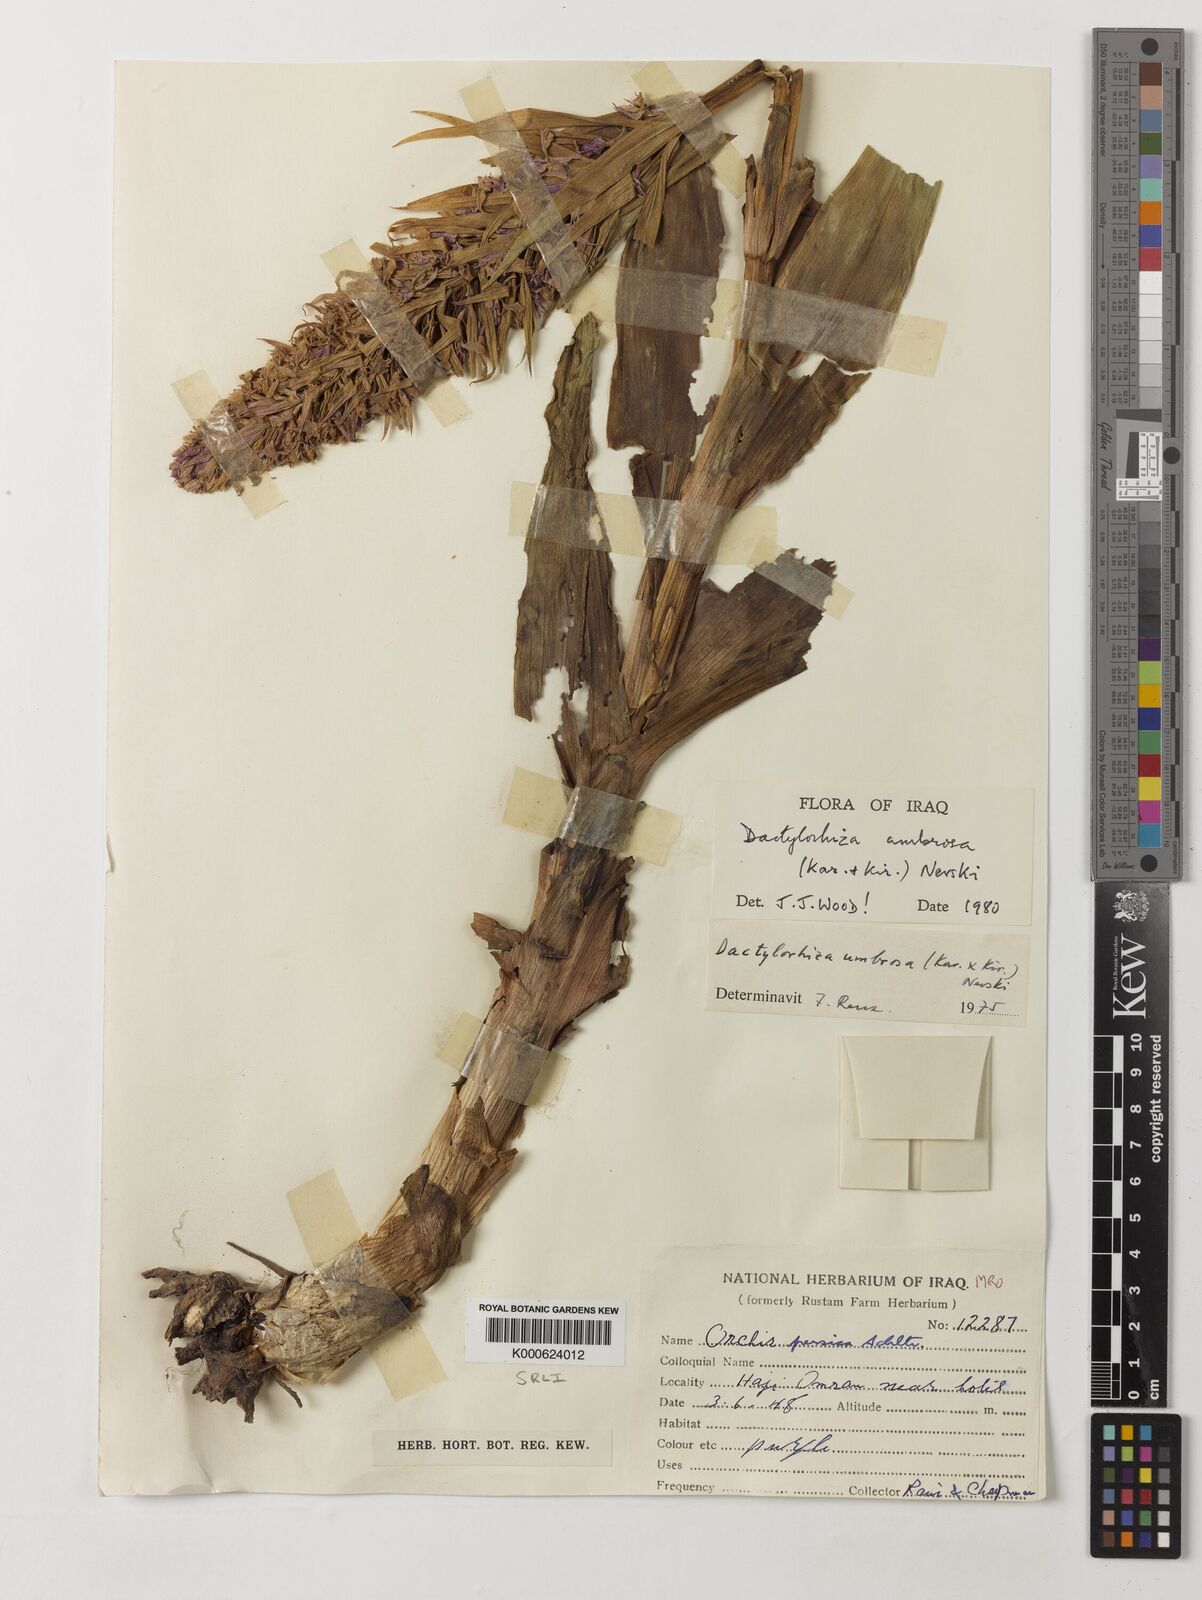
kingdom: Plantae
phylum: Tracheophyta
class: Liliopsida
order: Asparagales
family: Orchidaceae
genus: Dactylorhiza
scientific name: Dactylorhiza
